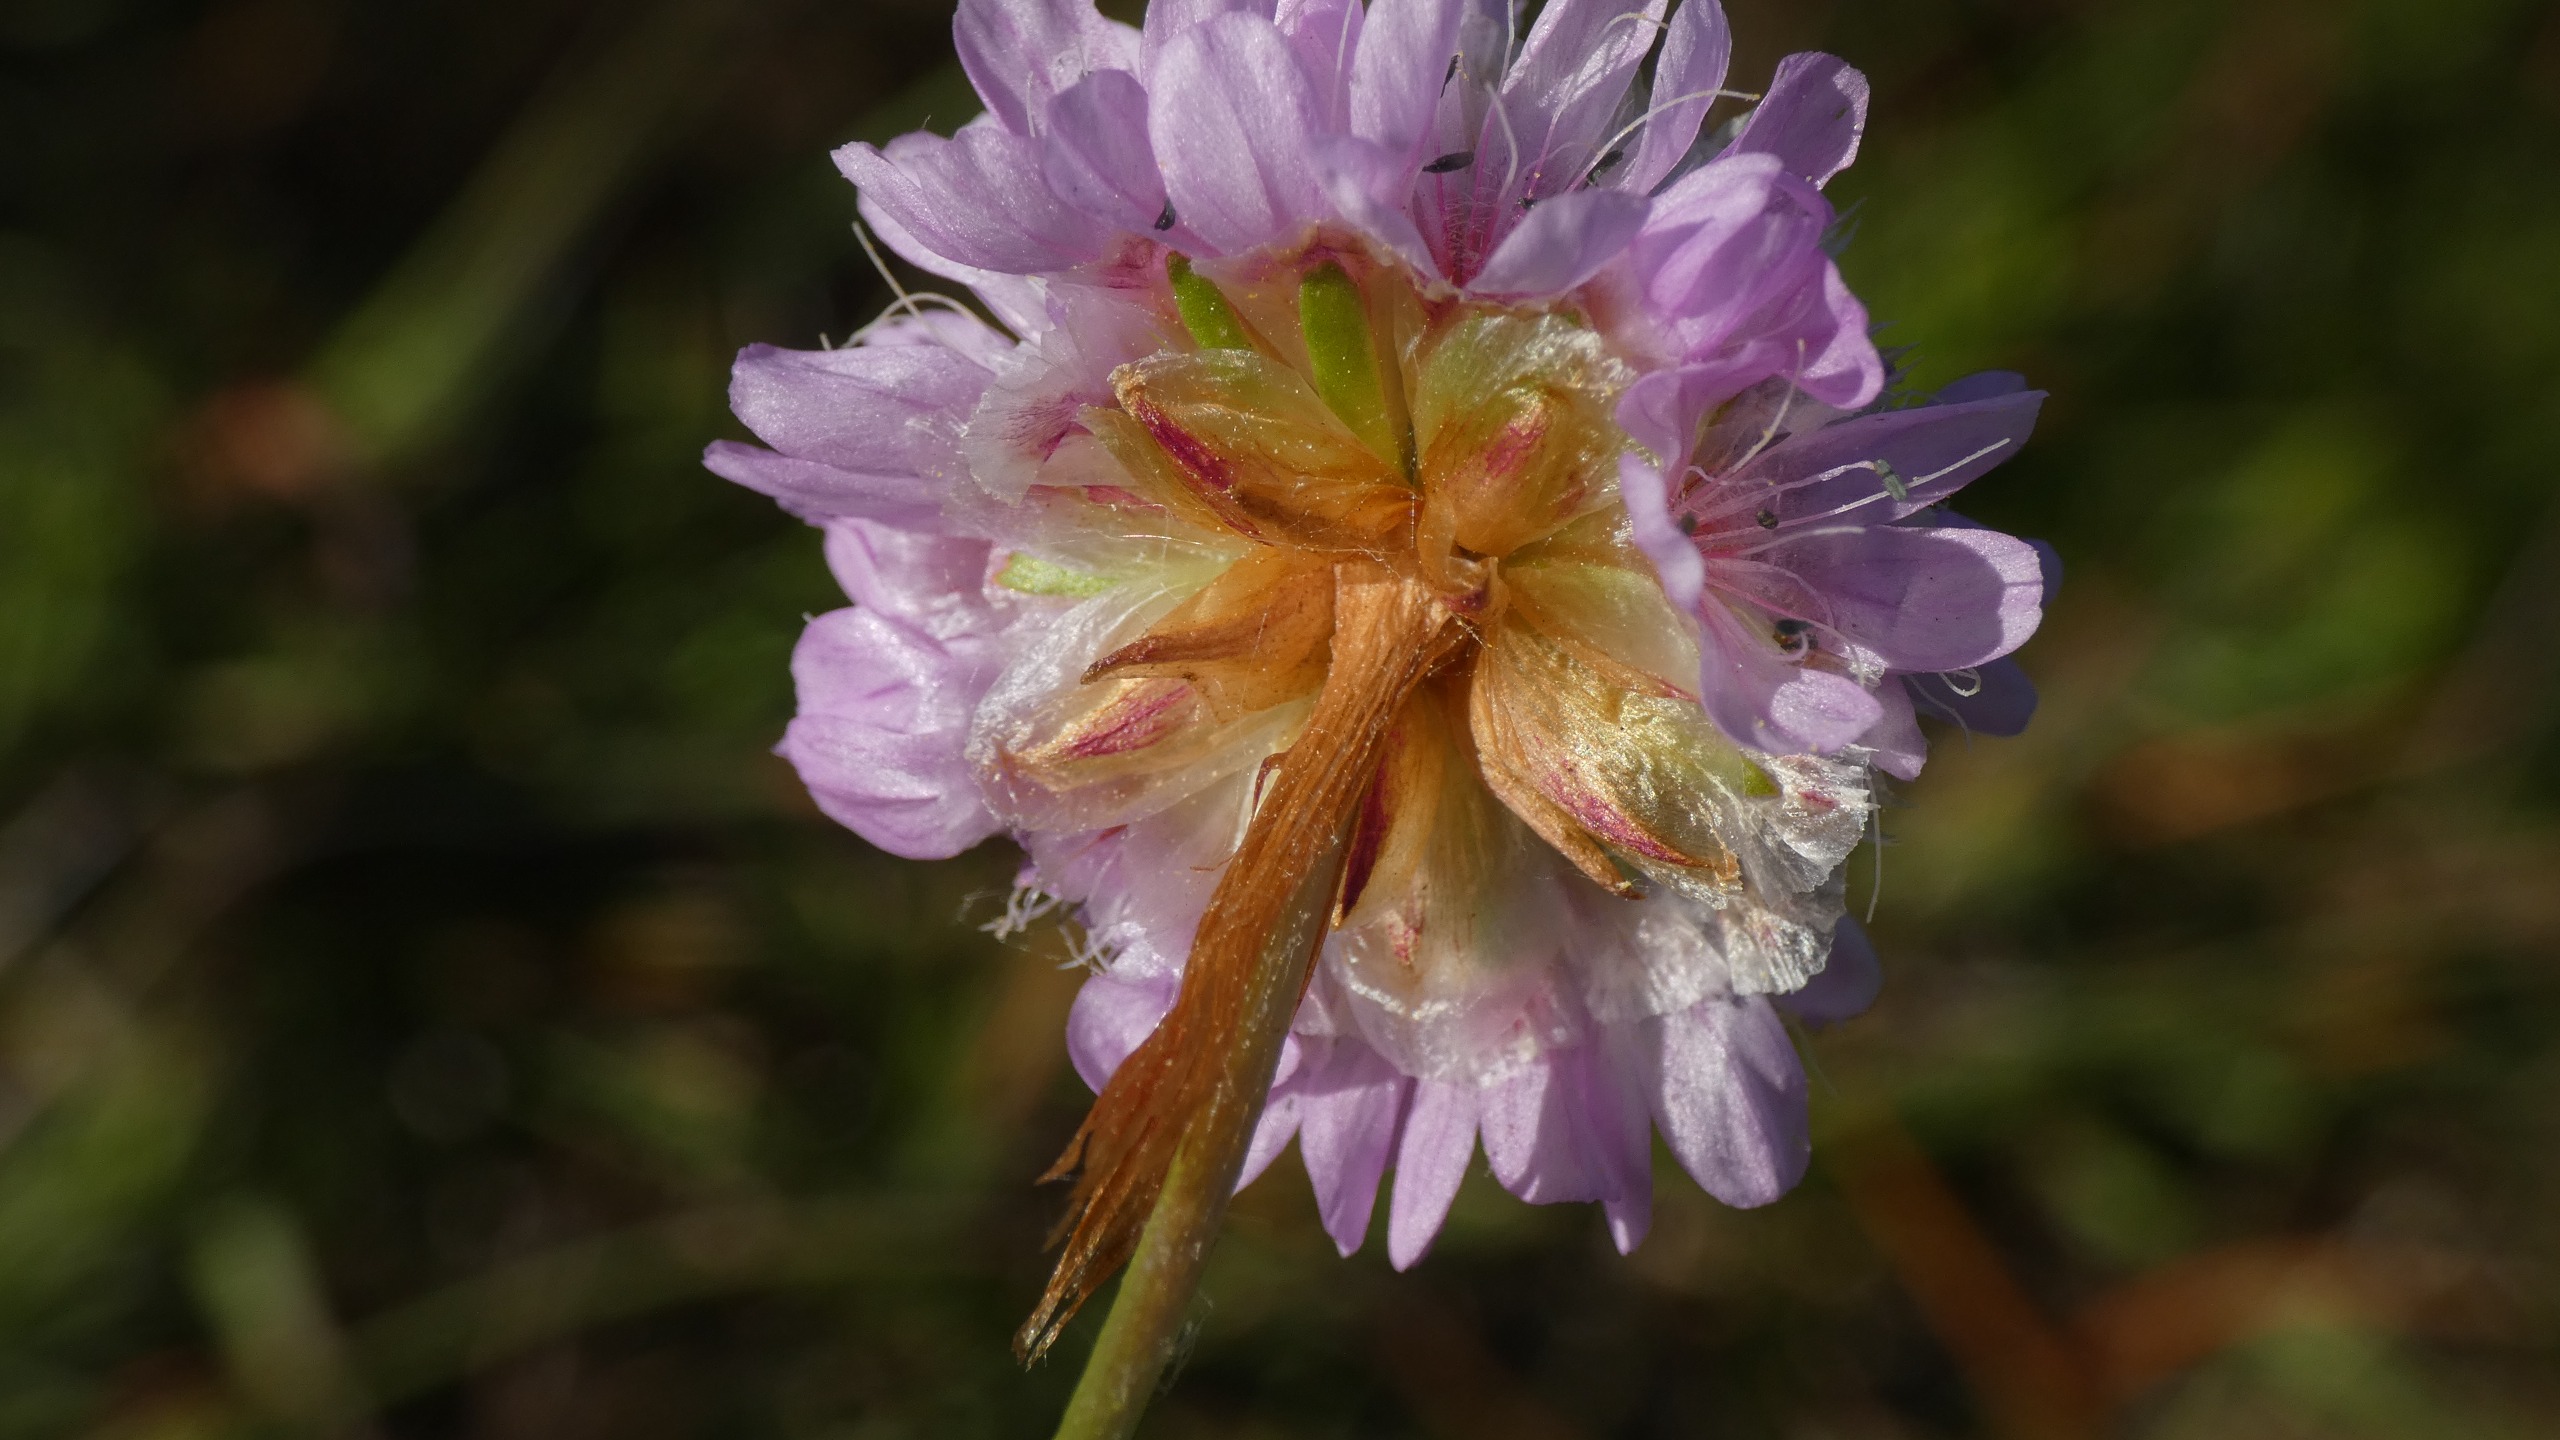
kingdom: Plantae
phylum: Tracheophyta
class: Magnoliopsida
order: Caryophyllales
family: Plumbaginaceae
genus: Armeria
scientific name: Armeria maritima
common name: Engelskgræs
